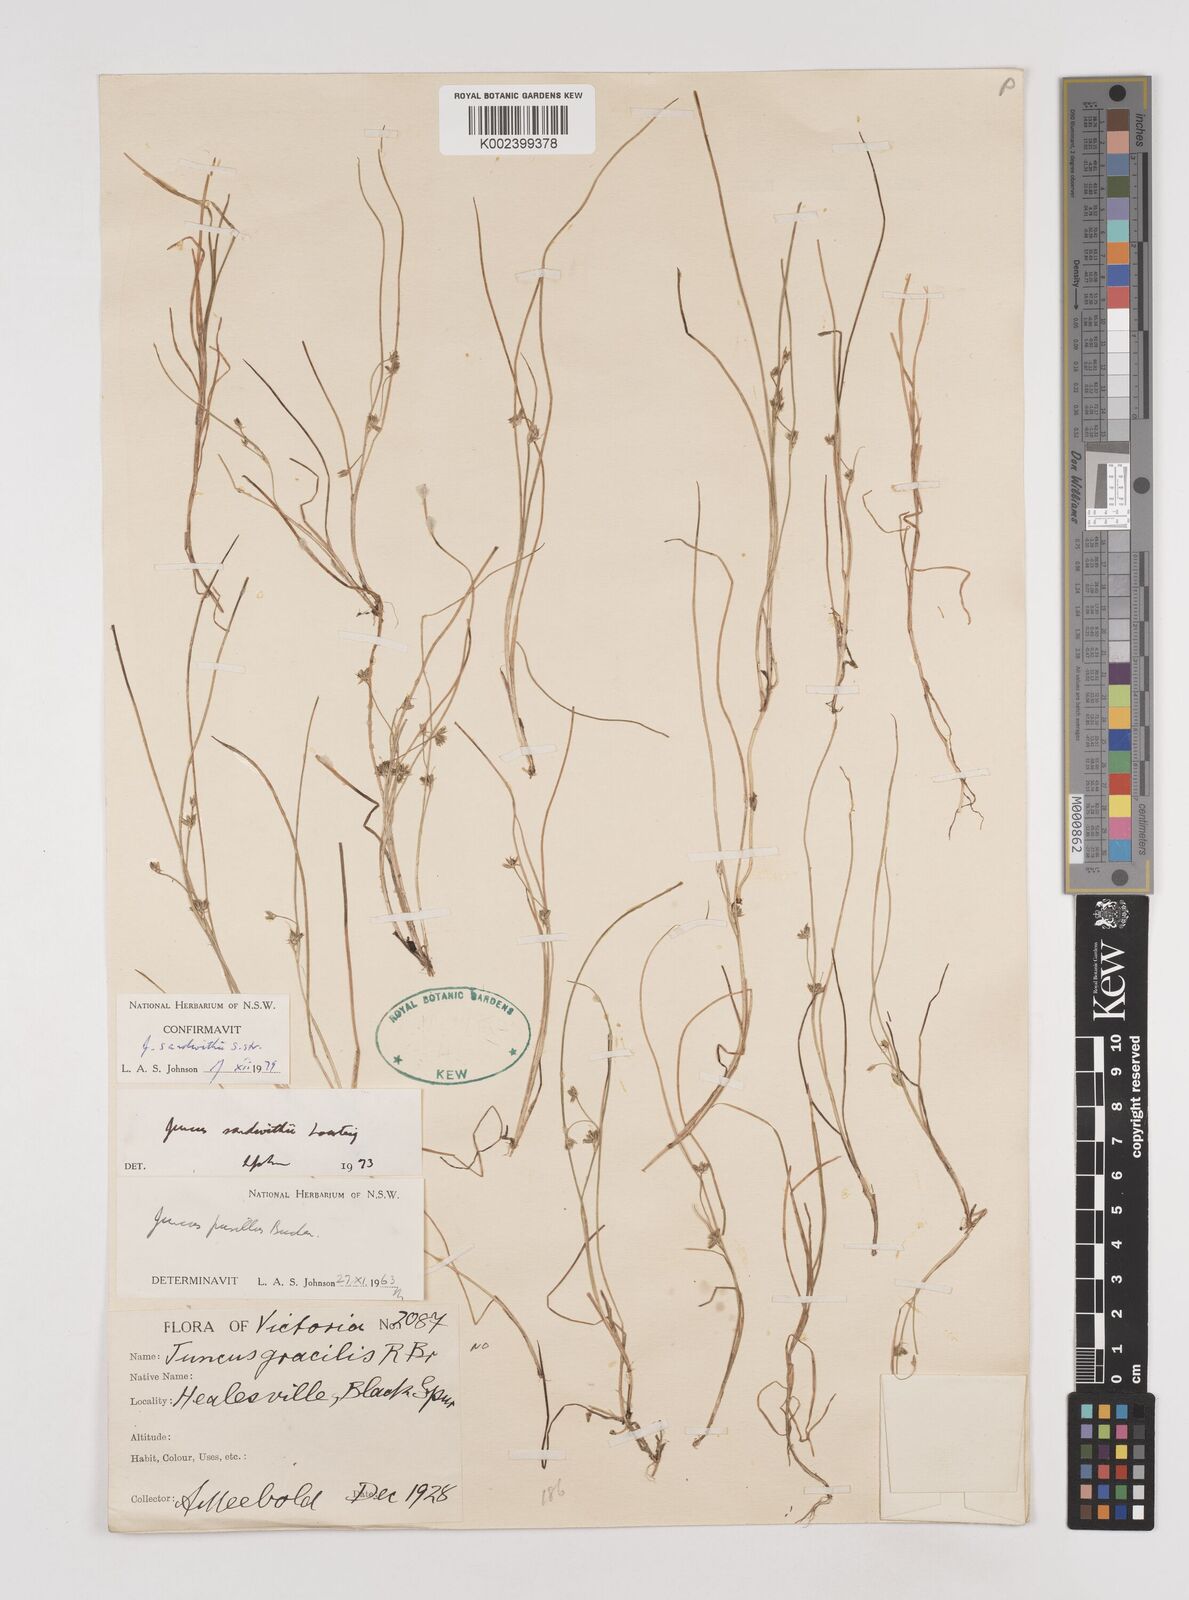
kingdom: Plantae
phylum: Tracheophyta
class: Liliopsida
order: Poales
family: Juncaceae
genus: Juncus
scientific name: Juncus sandwithii
